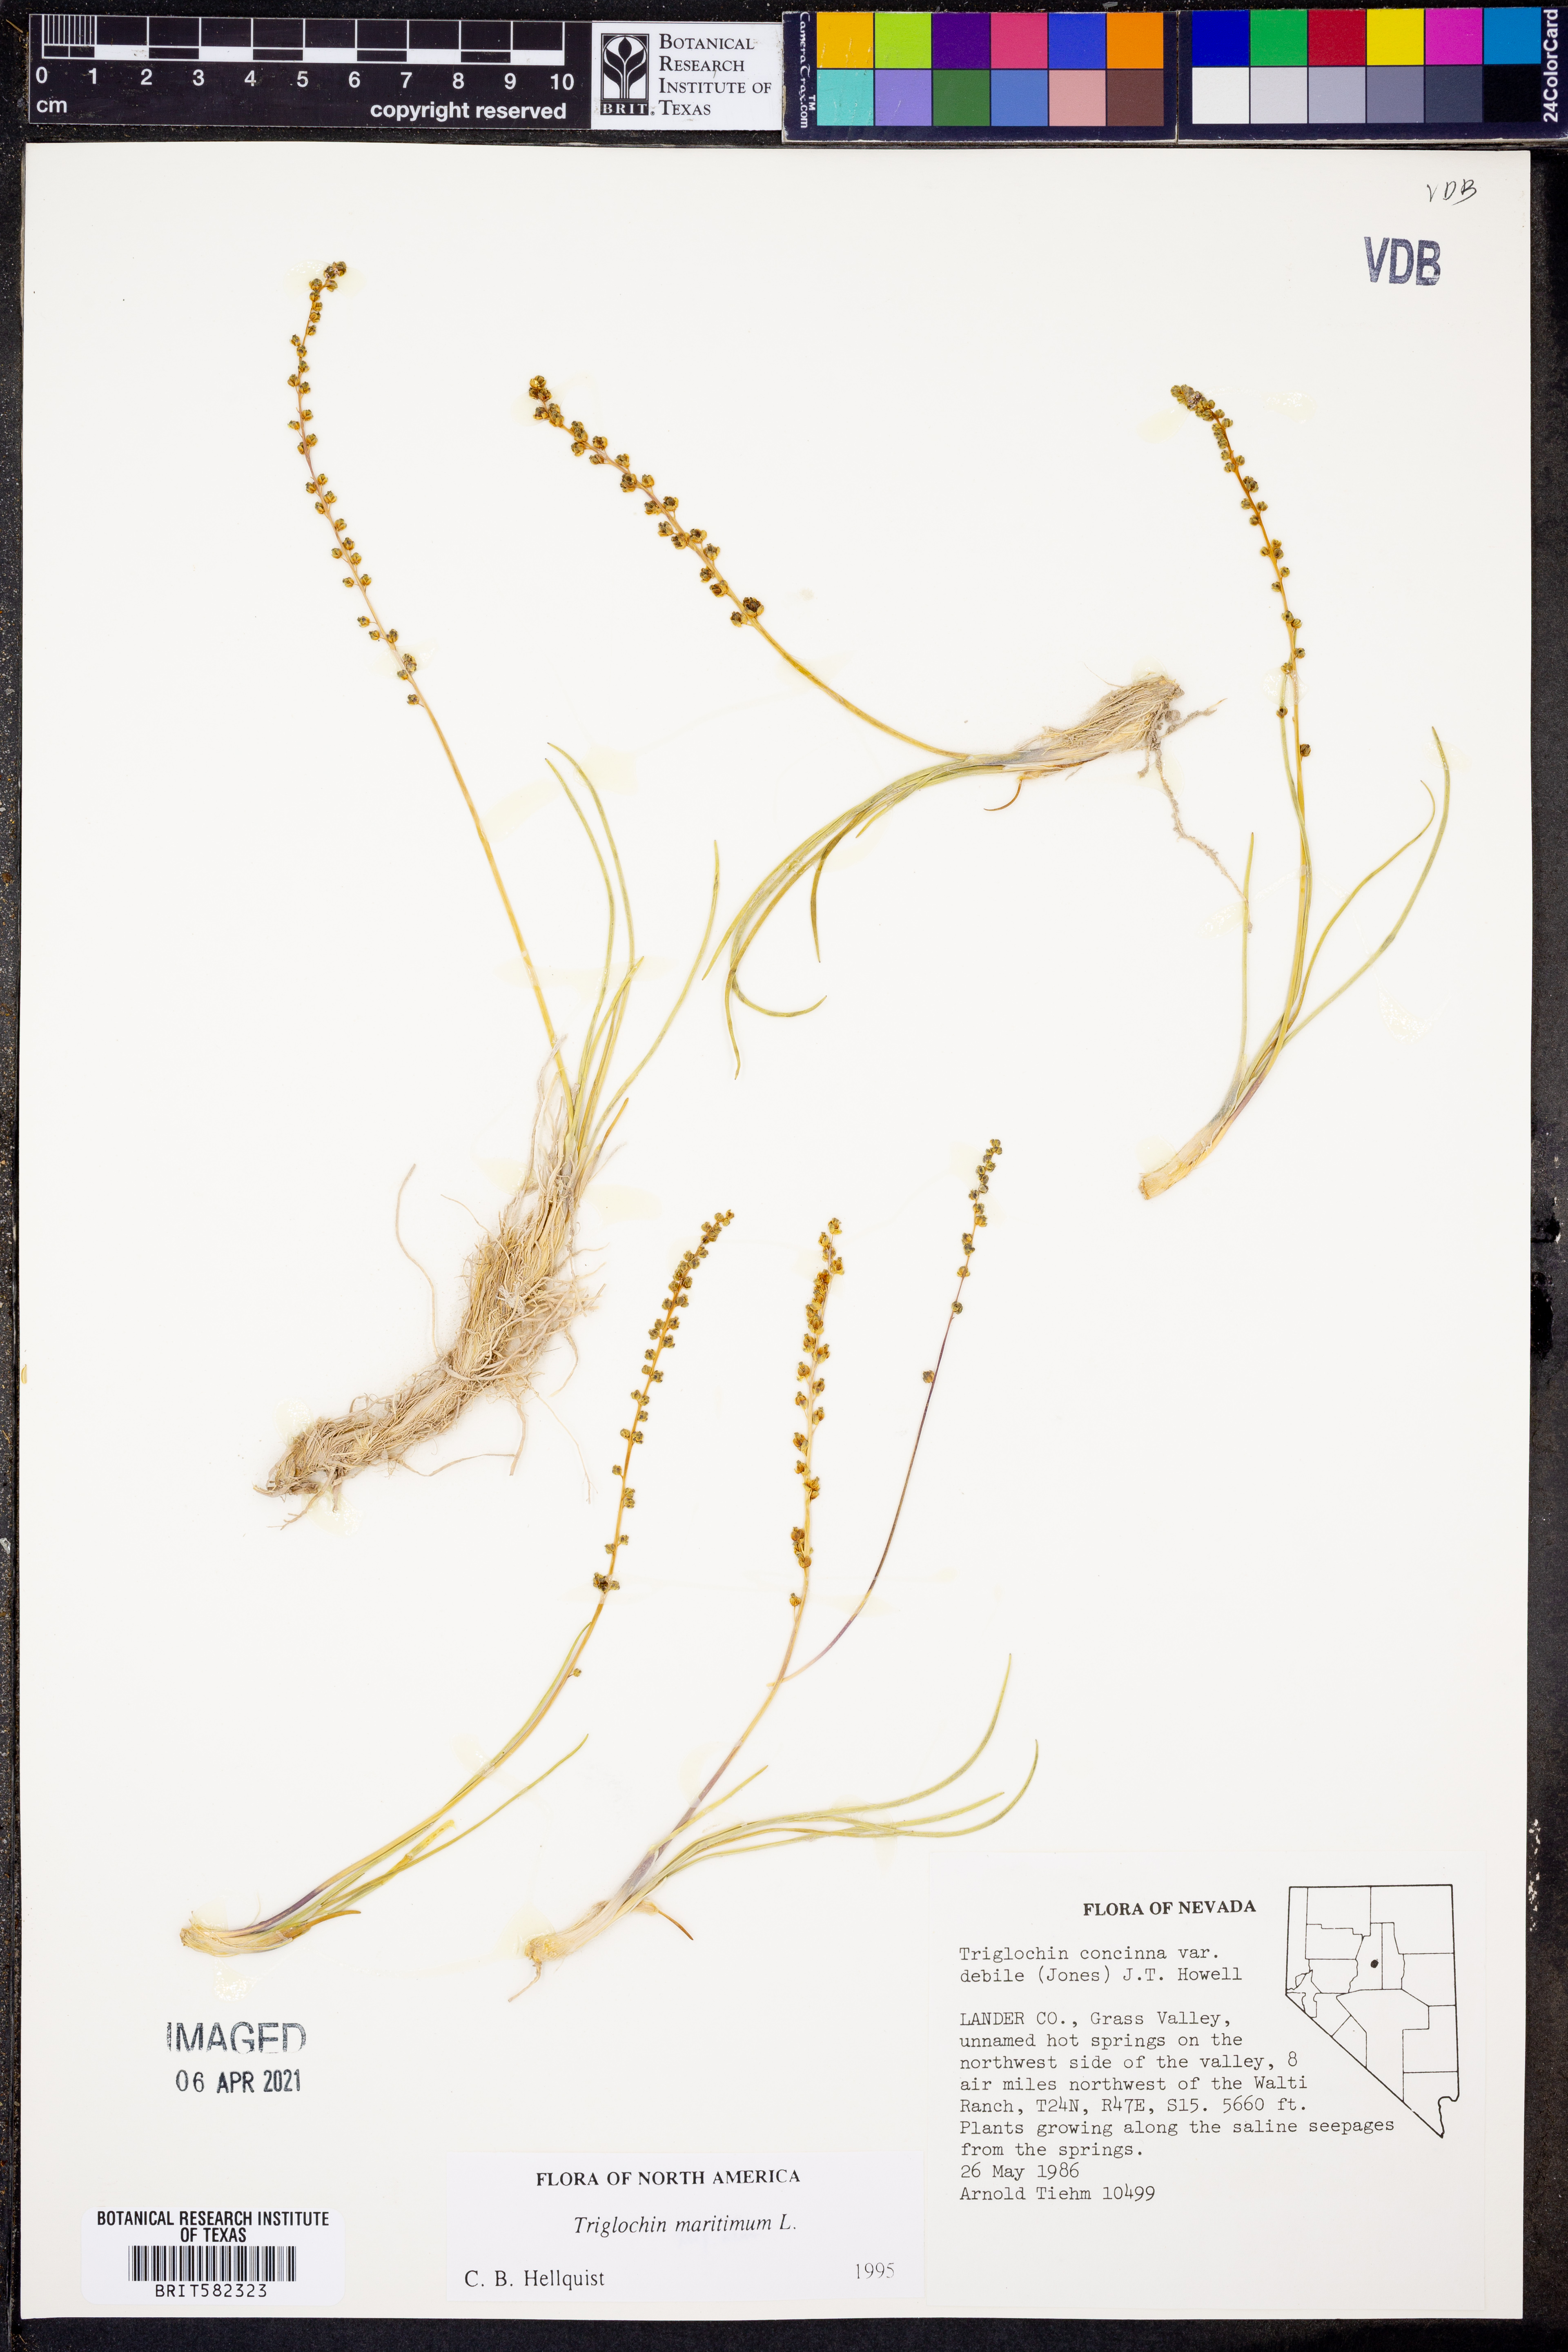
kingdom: Plantae
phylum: Tracheophyta
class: Liliopsida
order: Alismatales
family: Juncaginaceae
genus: Triglochin
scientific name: Triglochin maritima
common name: Sea arrowgrass
